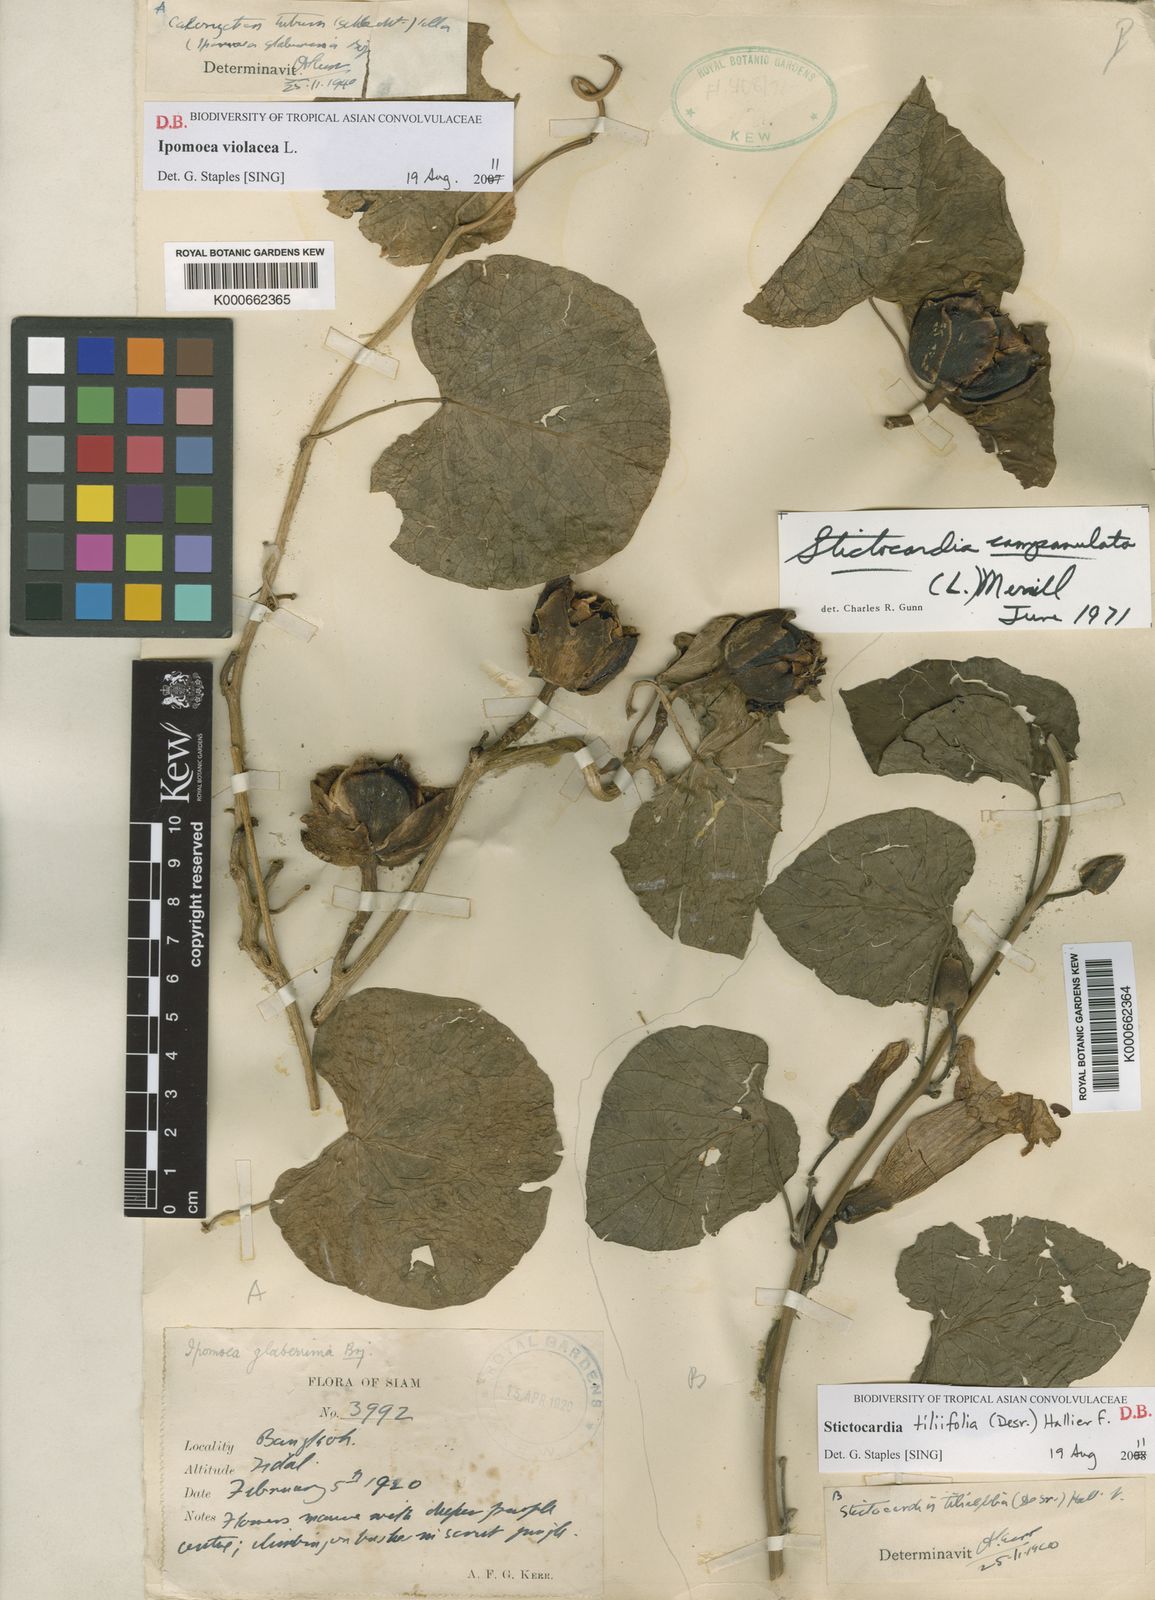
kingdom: Plantae
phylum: Tracheophyta
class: Magnoliopsida
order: Solanales
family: Convolvulaceae
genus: Stictocardia
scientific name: Stictocardia tiliifolia
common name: Spottedheart
